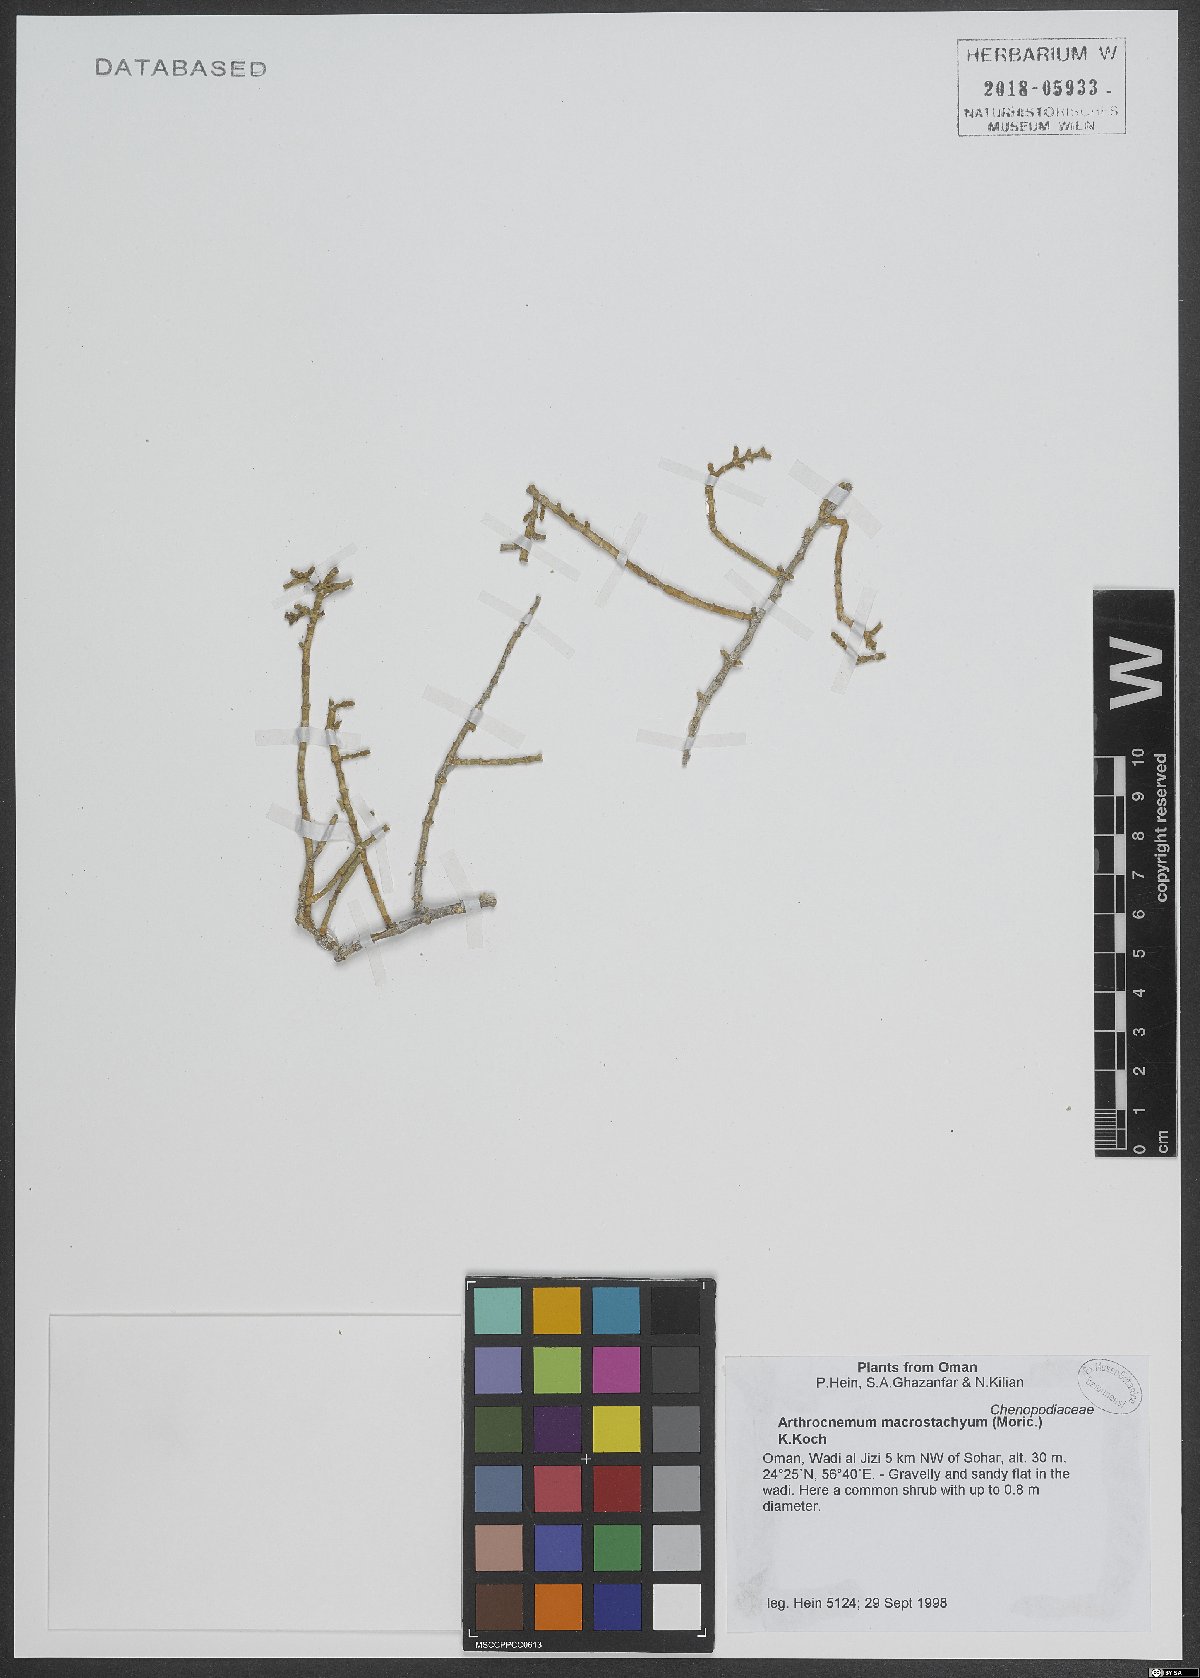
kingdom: Plantae
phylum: Tracheophyta
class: Magnoliopsida
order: Caryophyllales
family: Amaranthaceae
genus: Arthrocaulon
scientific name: Arthrocaulon macrostachyum
